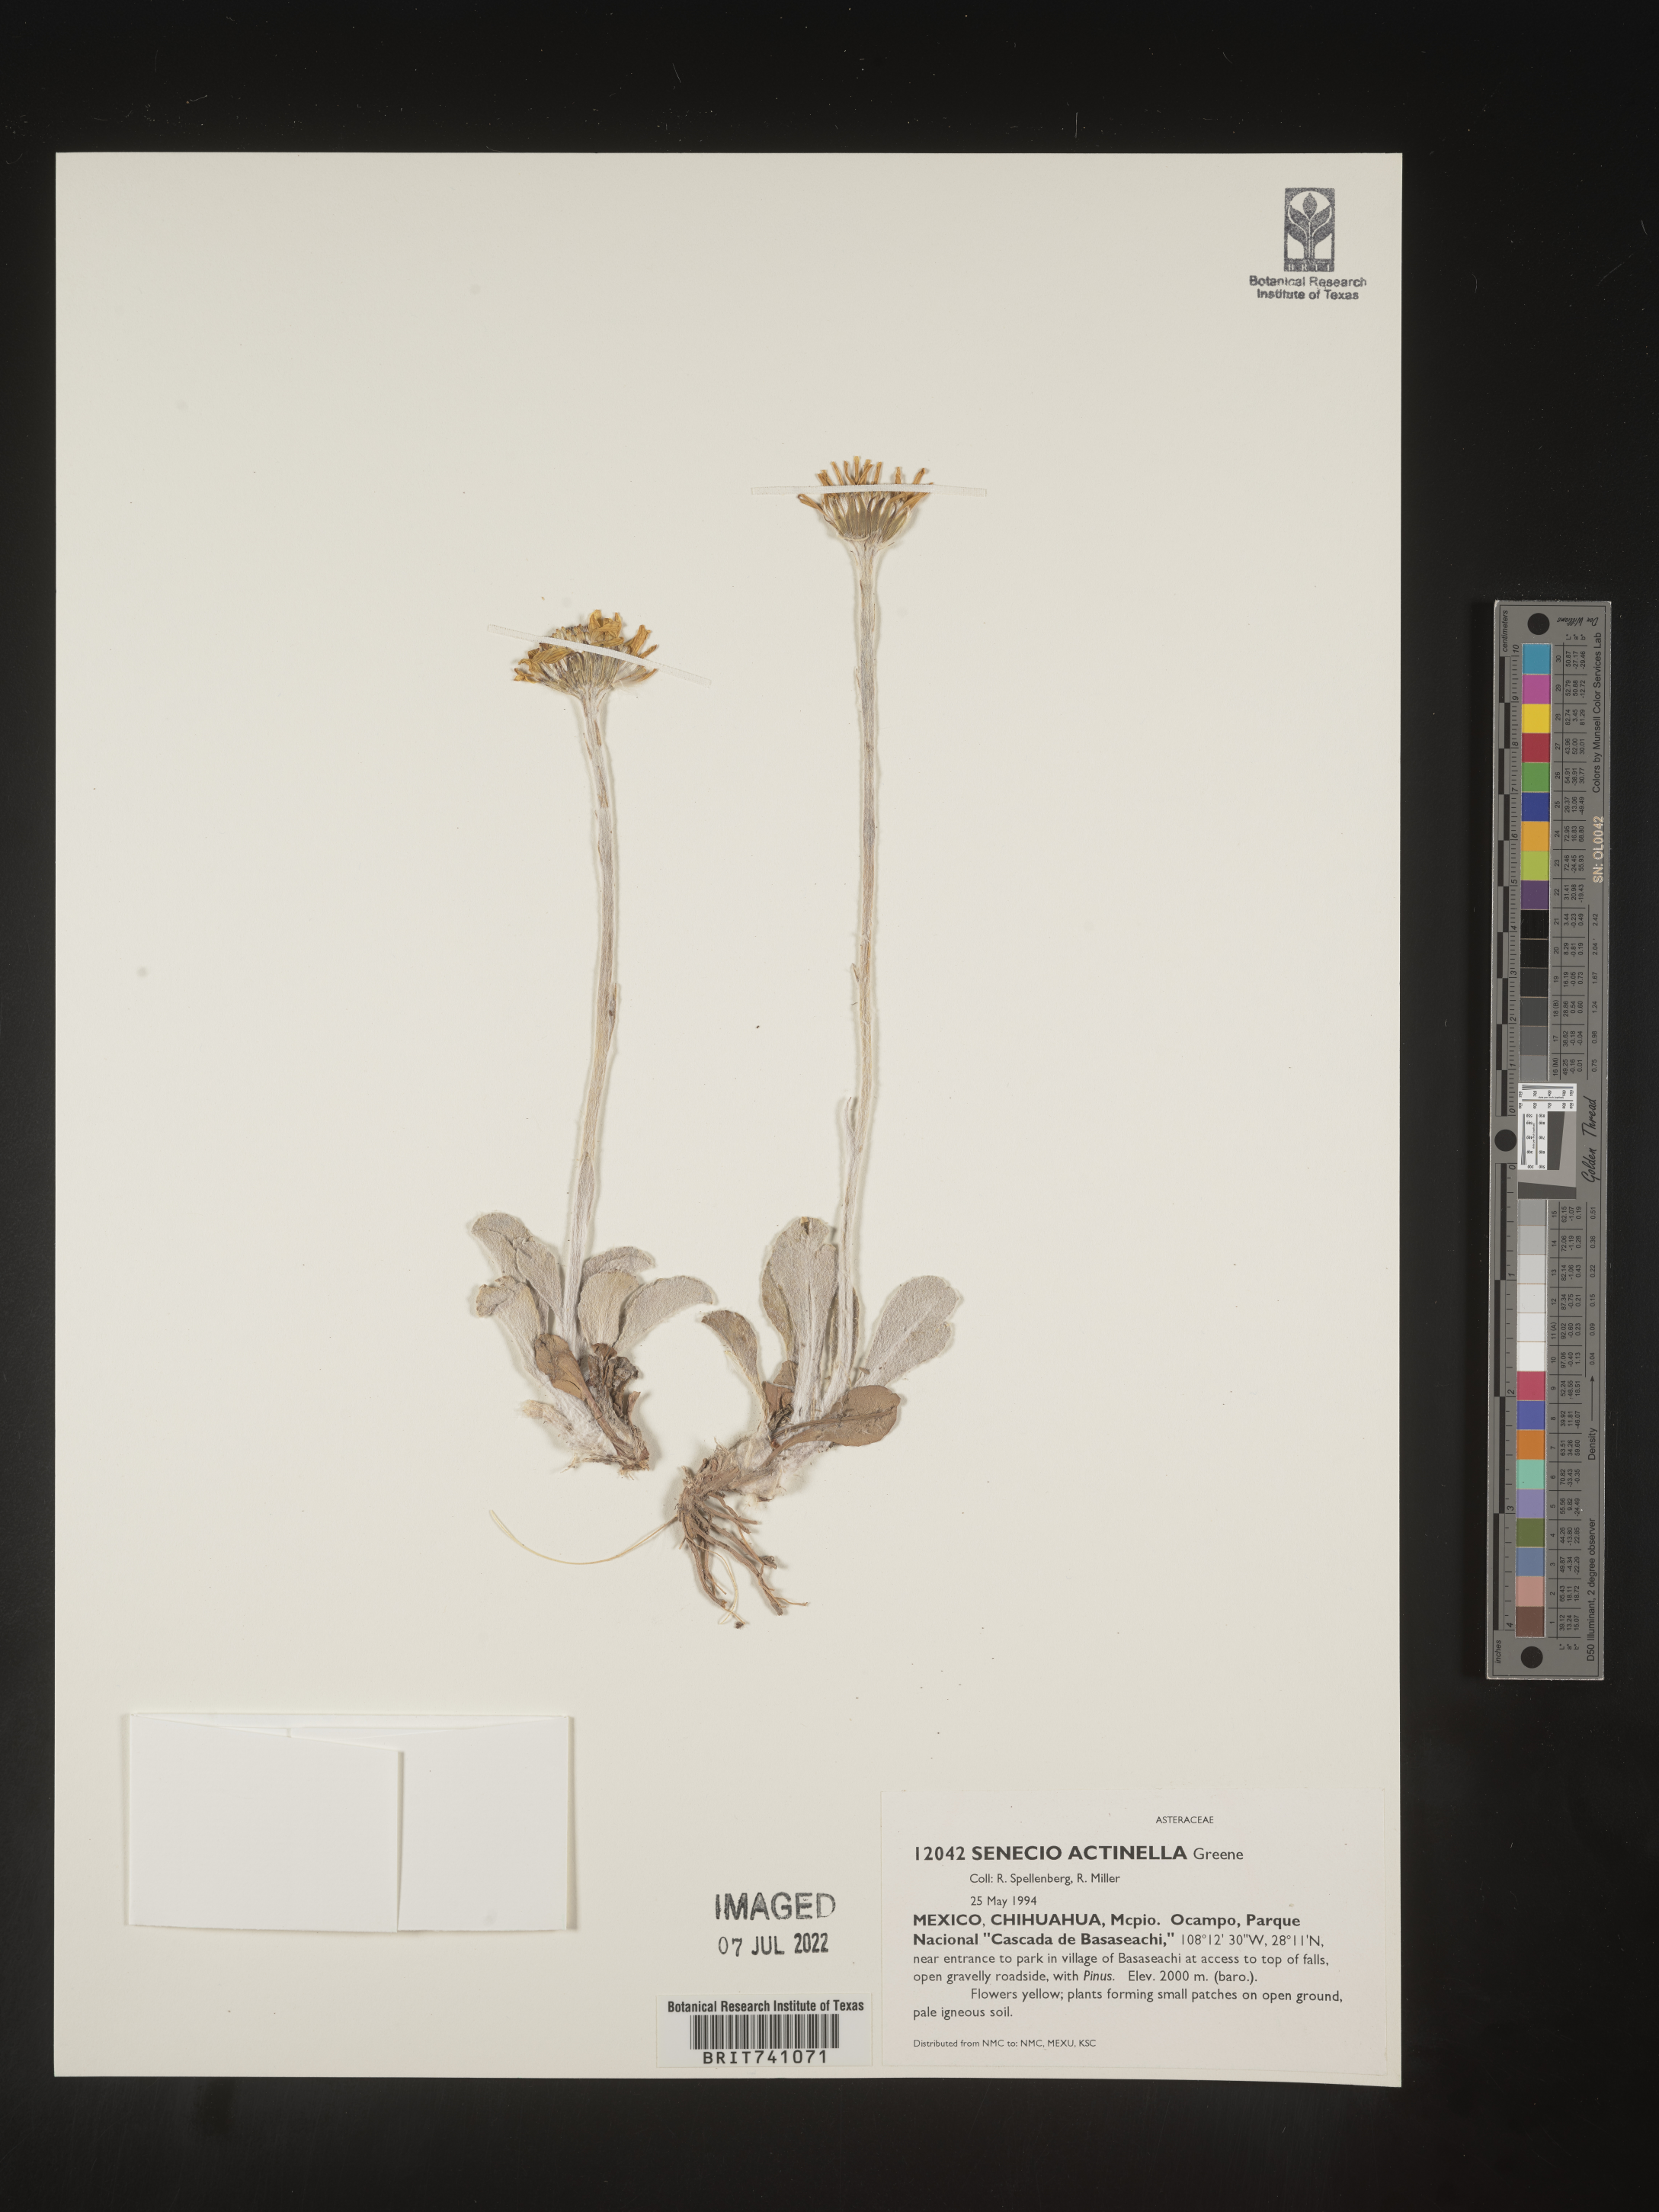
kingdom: Plantae
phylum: Tracheophyta
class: Magnoliopsida
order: Asterales
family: Asteraceae
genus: Senecio
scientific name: Senecio
